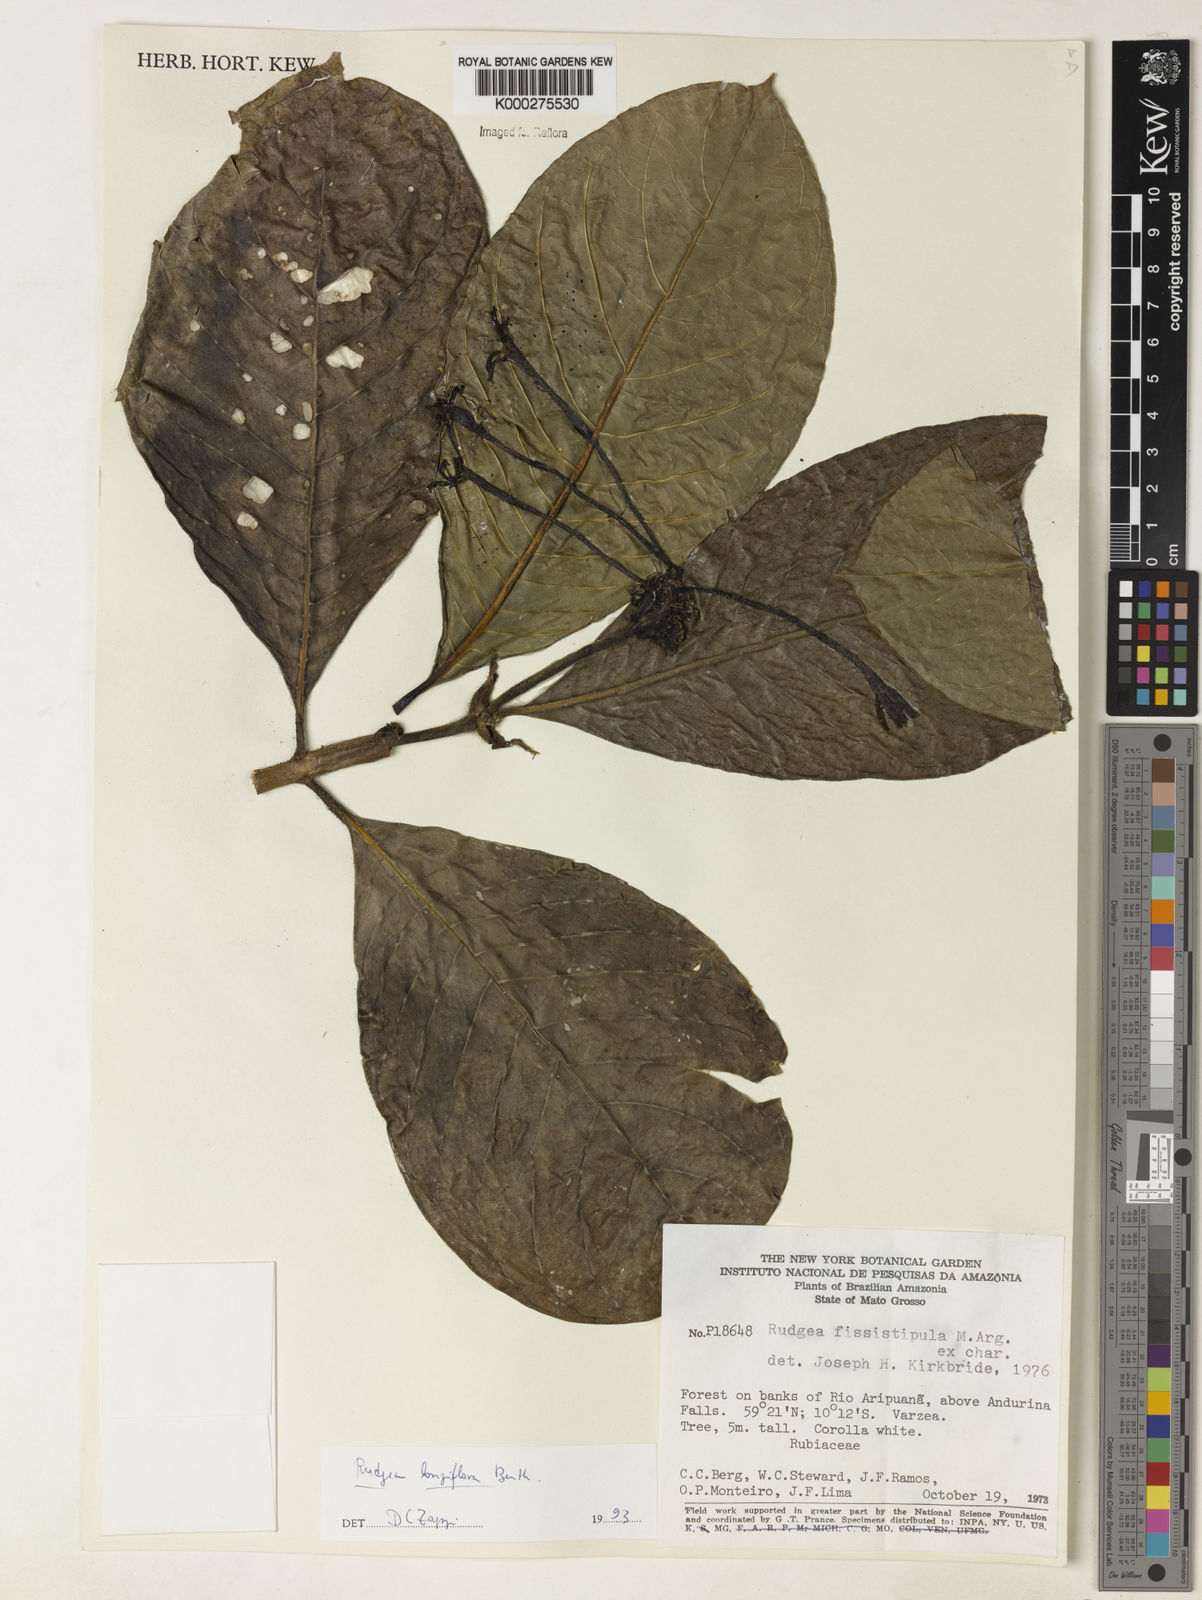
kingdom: Plantae
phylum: Tracheophyta
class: Magnoliopsida
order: Gentianales
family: Rubiaceae
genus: Rudgea
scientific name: Rudgea longiflora
